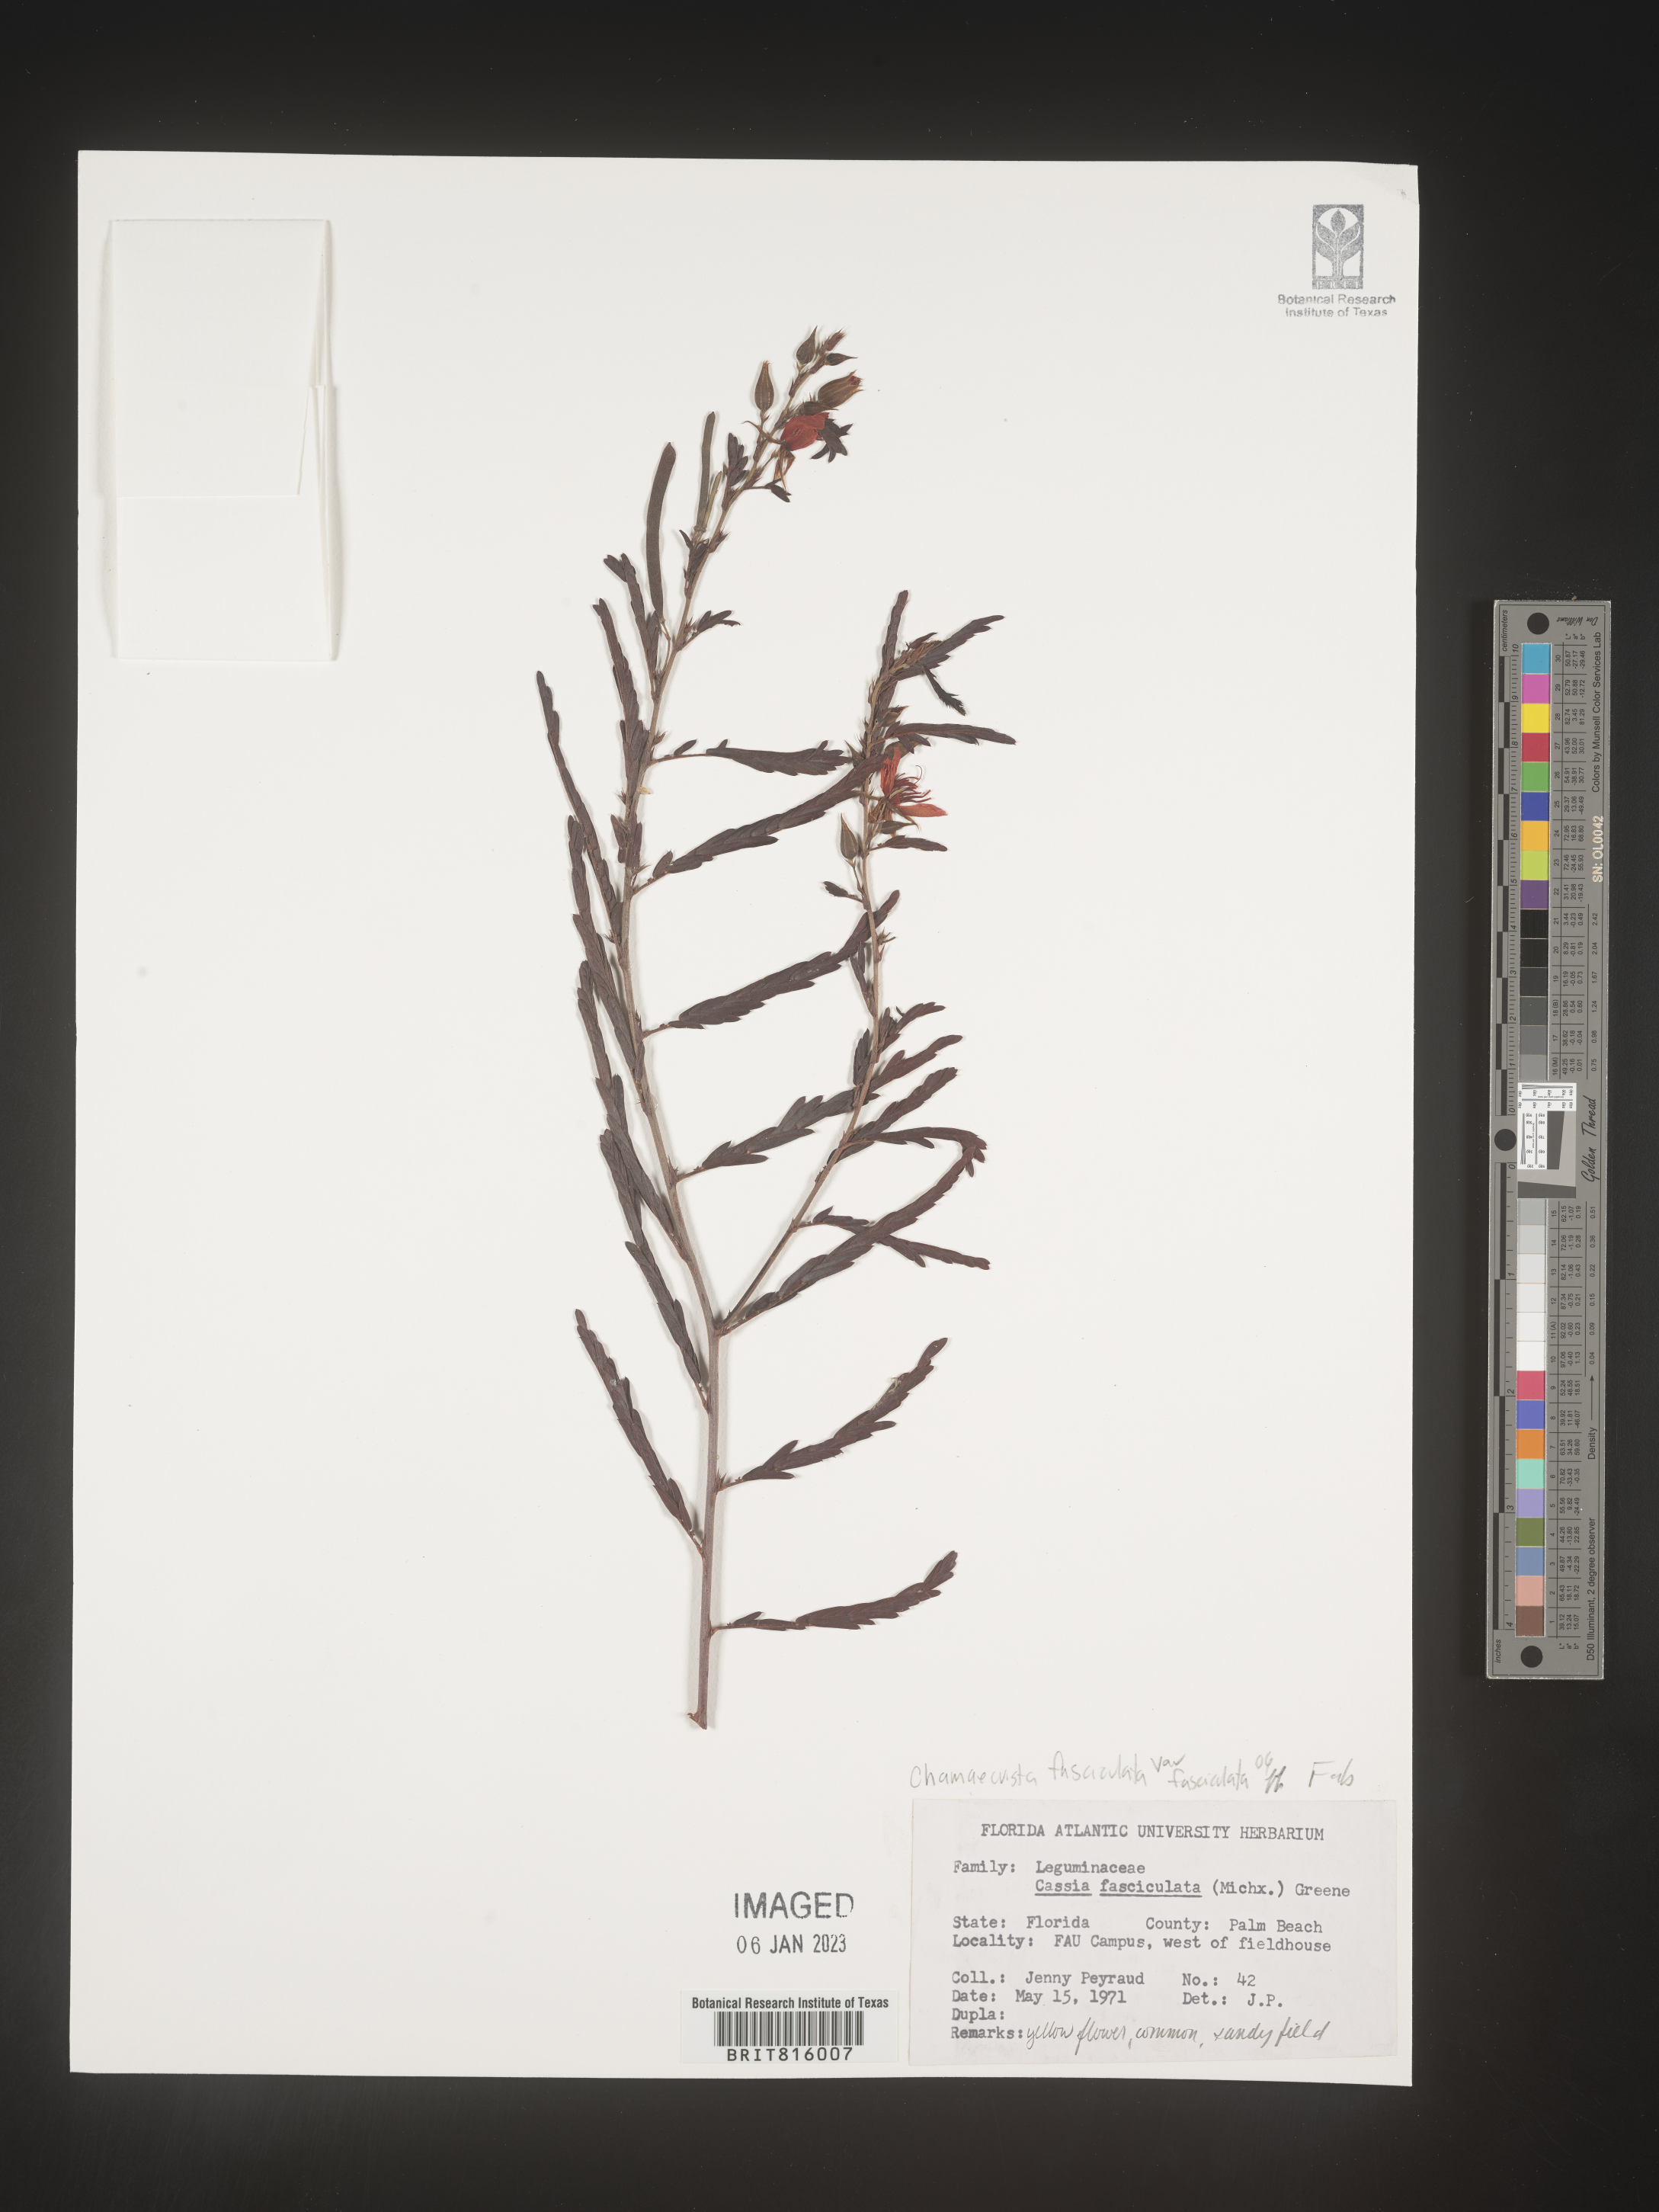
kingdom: Plantae
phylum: Tracheophyta
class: Magnoliopsida
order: Fabales
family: Fabaceae
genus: Chamaecrista
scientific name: Chamaecrista fasciculata
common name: Golden cassia
